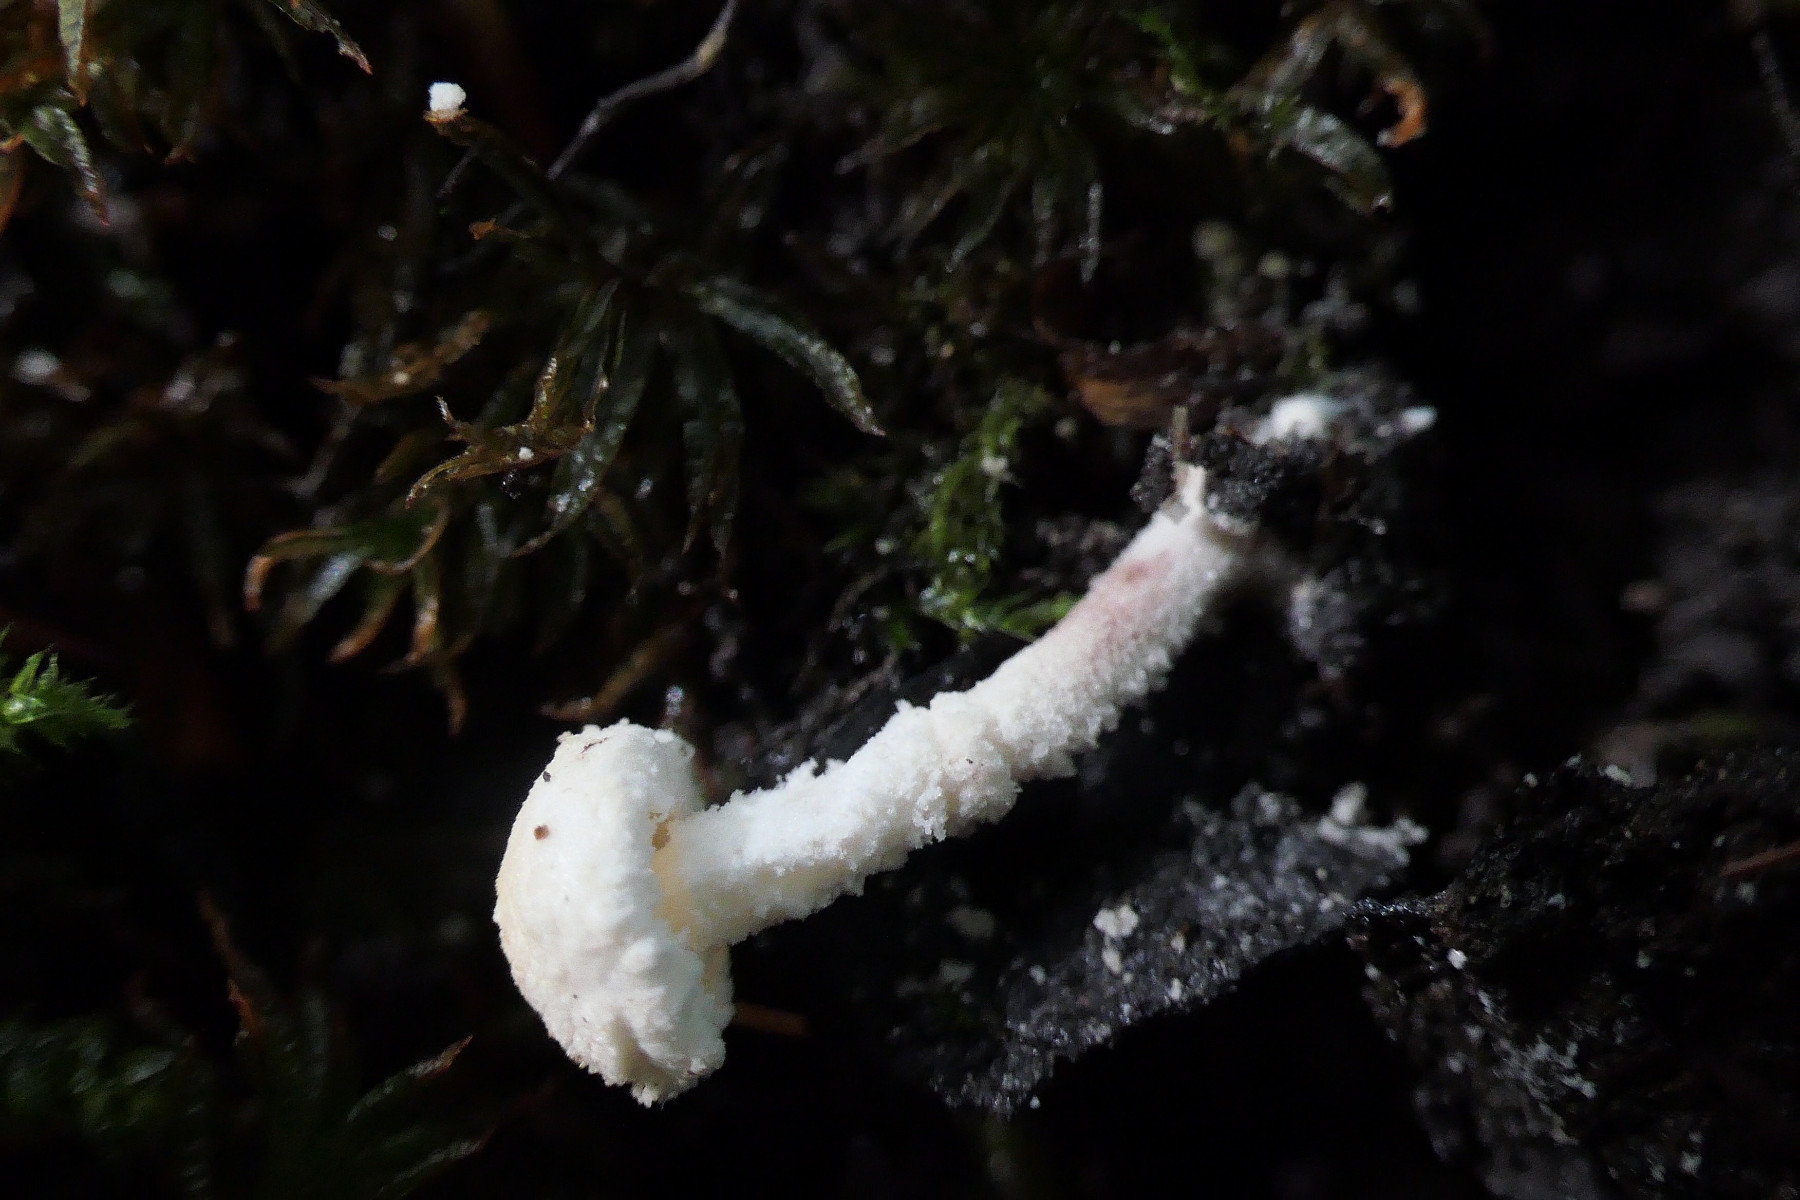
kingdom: Fungi
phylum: Basidiomycota
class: Agaricomycetes
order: Agaricales
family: Agaricaceae
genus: Cystolepiota
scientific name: Cystolepiota seminuda
